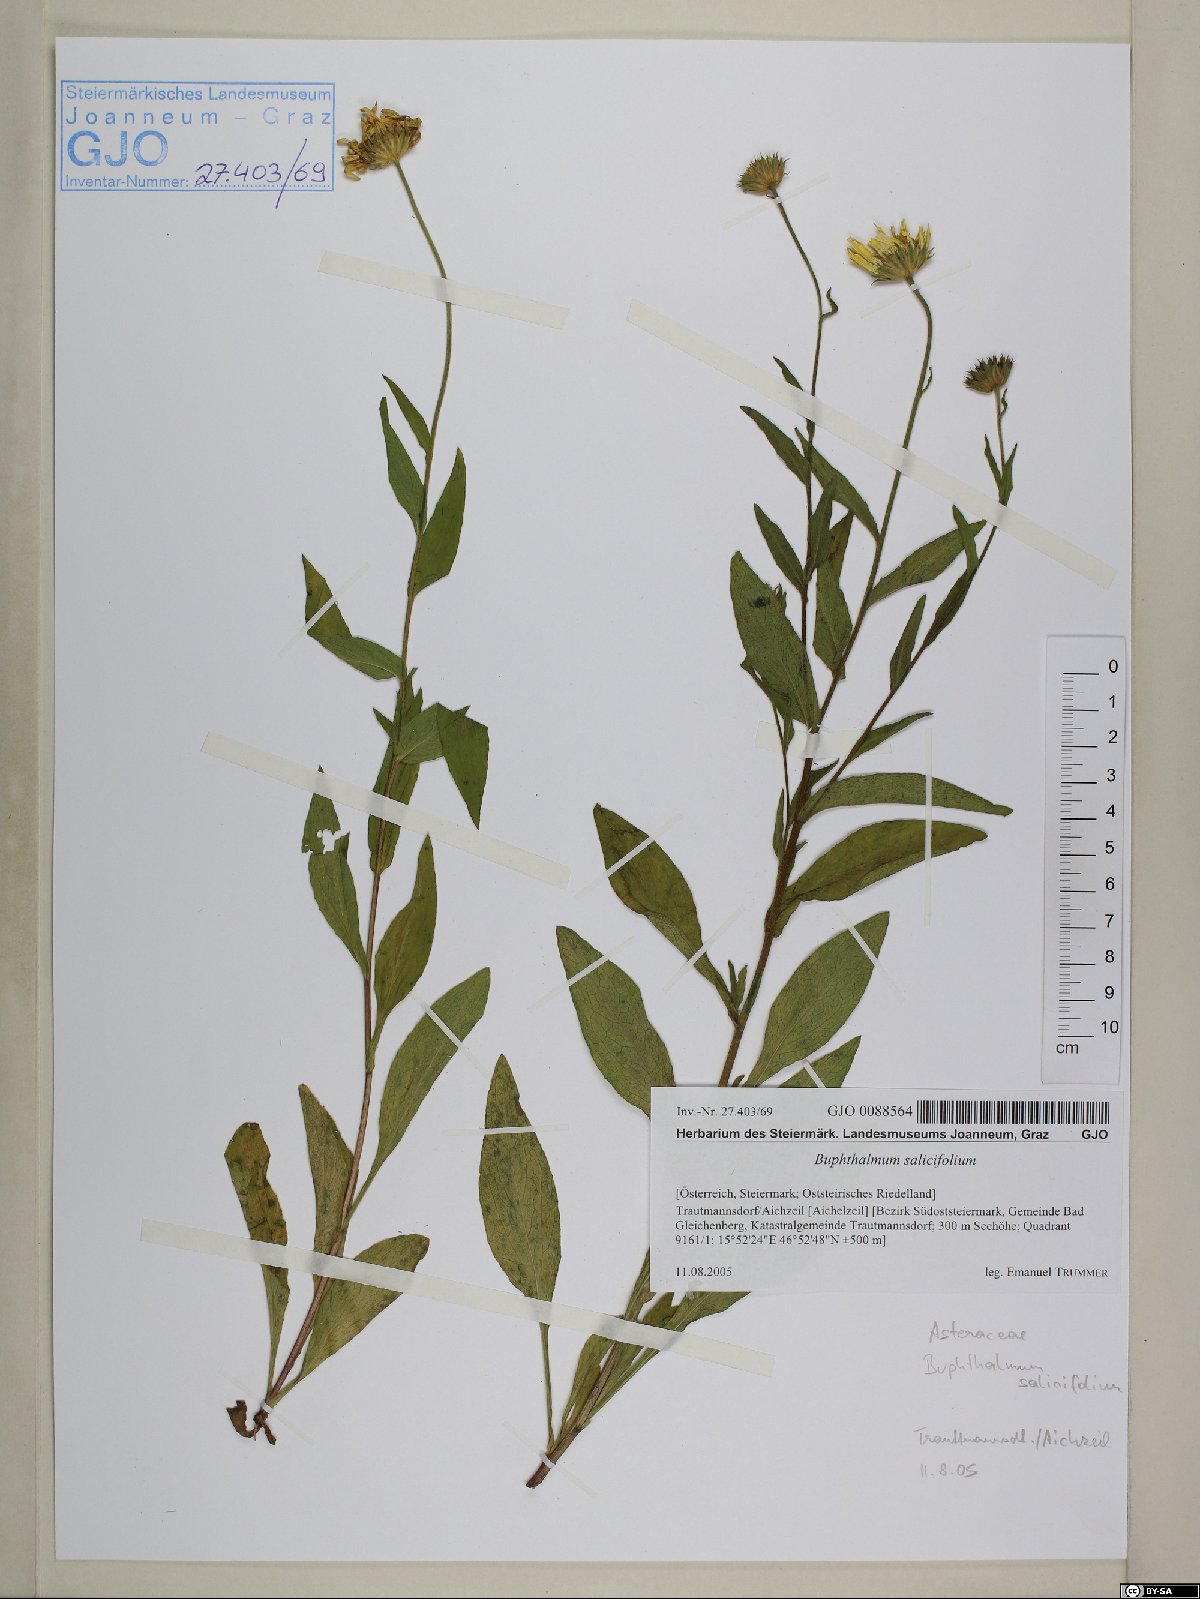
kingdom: Plantae
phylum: Tracheophyta
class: Magnoliopsida
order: Asterales
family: Asteraceae
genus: Buphthalmum
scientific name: Buphthalmum salicifolium
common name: Willow-leaved yellow-oxeye
